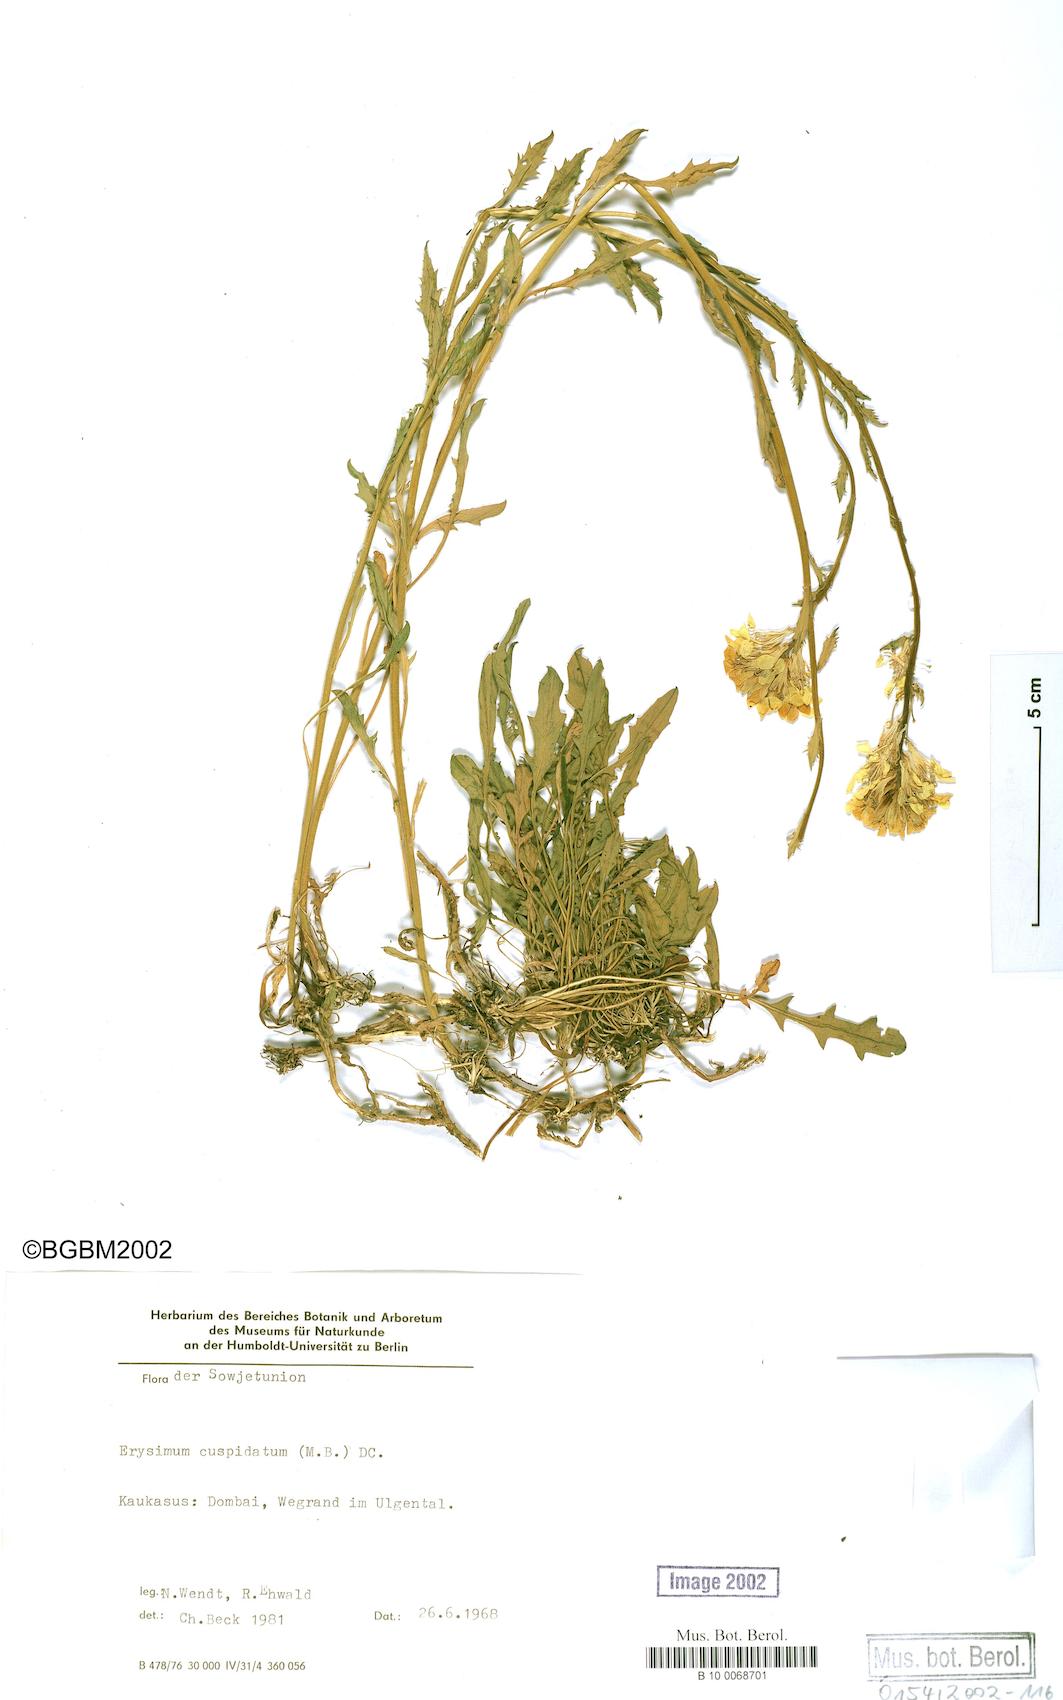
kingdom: Plantae
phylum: Tracheophyta
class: Magnoliopsida
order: Brassicales
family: Brassicaceae
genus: Erysimum
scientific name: Erysimum froehneri
